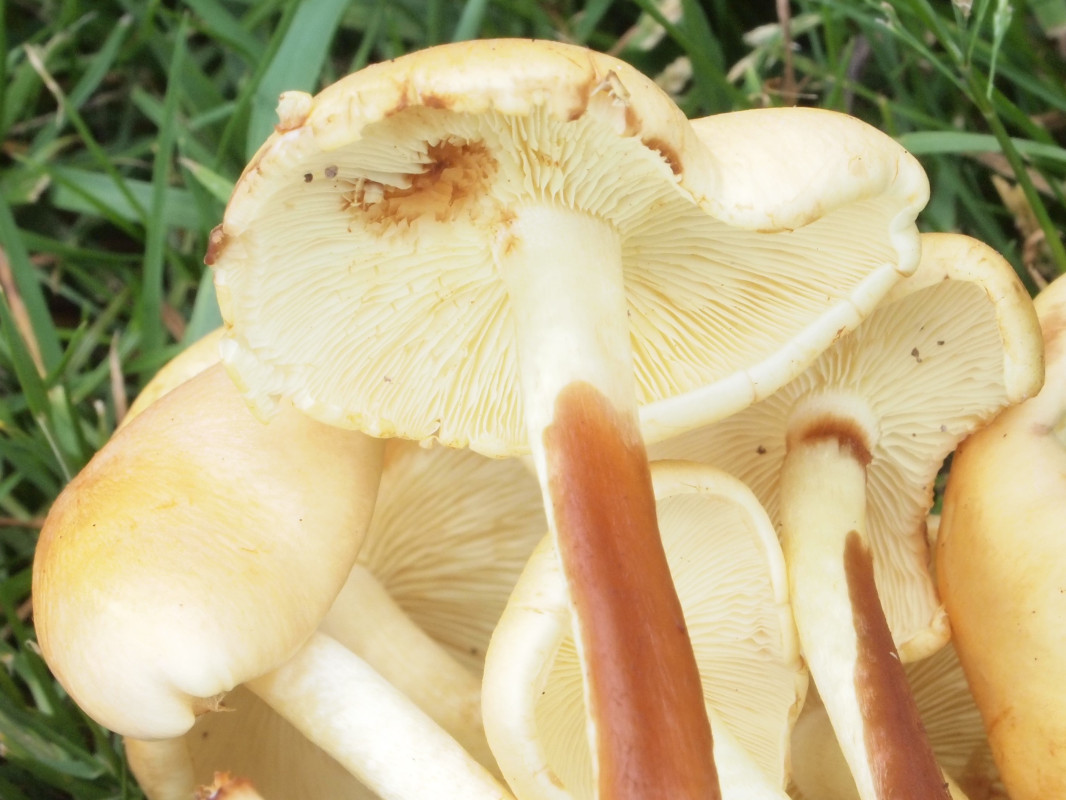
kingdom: Fungi
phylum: Basidiomycota
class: Agaricomycetes
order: Agaricales
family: Strophariaceae
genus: Hypholoma
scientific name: Hypholoma fasciculare
